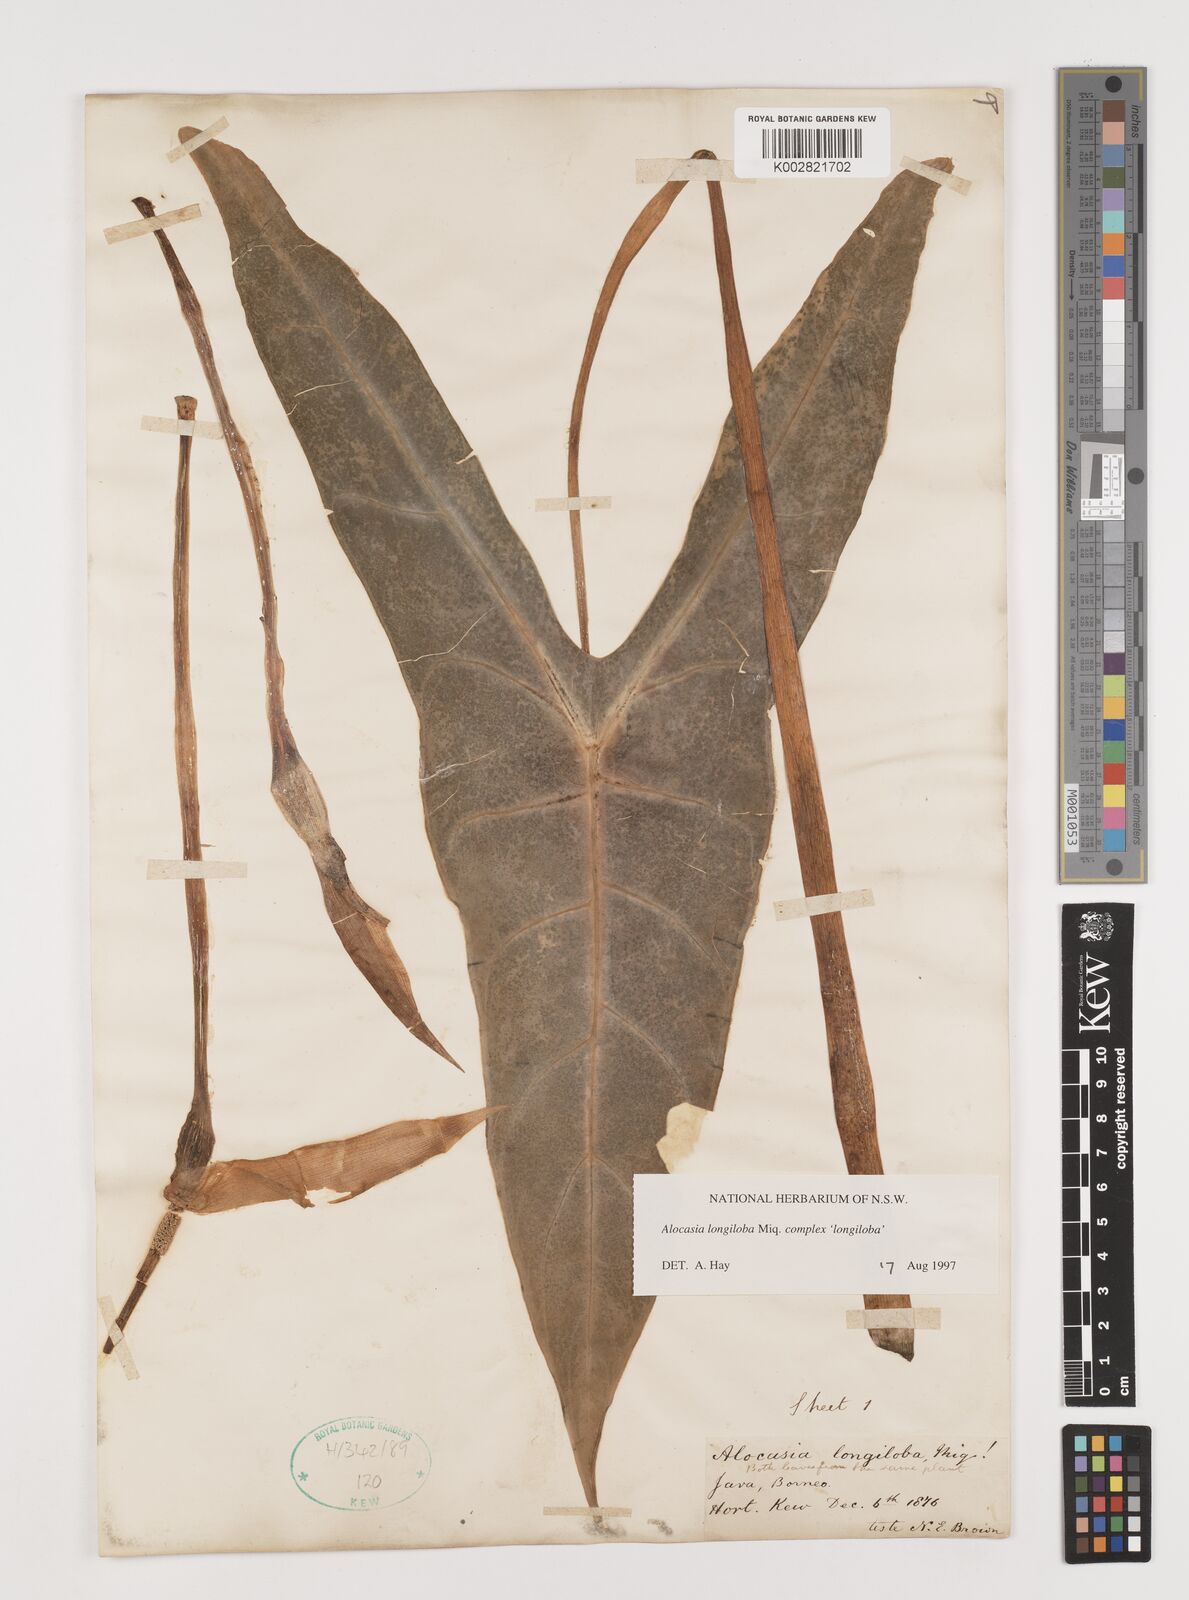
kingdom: Plantae
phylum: Tracheophyta
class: Liliopsida
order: Alismatales
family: Araceae
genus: Alocasia
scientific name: Alocasia longiloba
